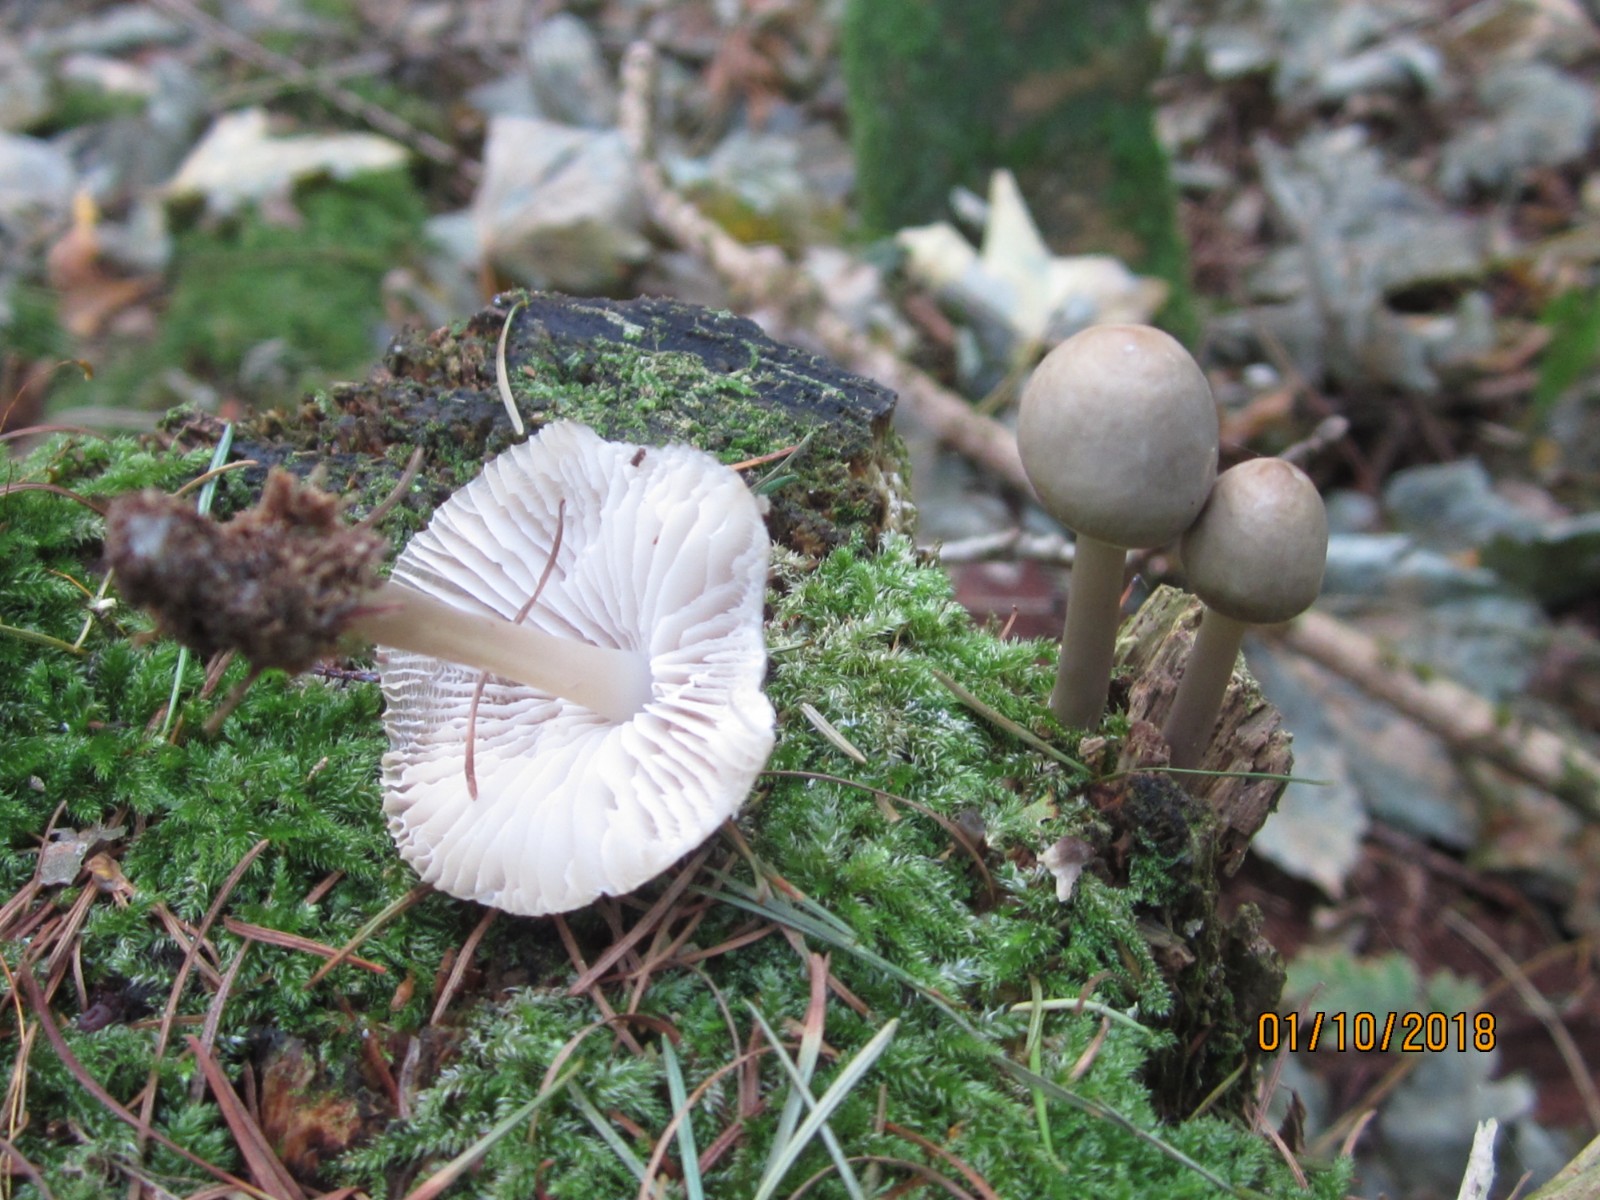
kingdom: Fungi
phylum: Basidiomycota
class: Agaricomycetes
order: Agaricales
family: Mycenaceae
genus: Mycena
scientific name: Mycena galericulata
